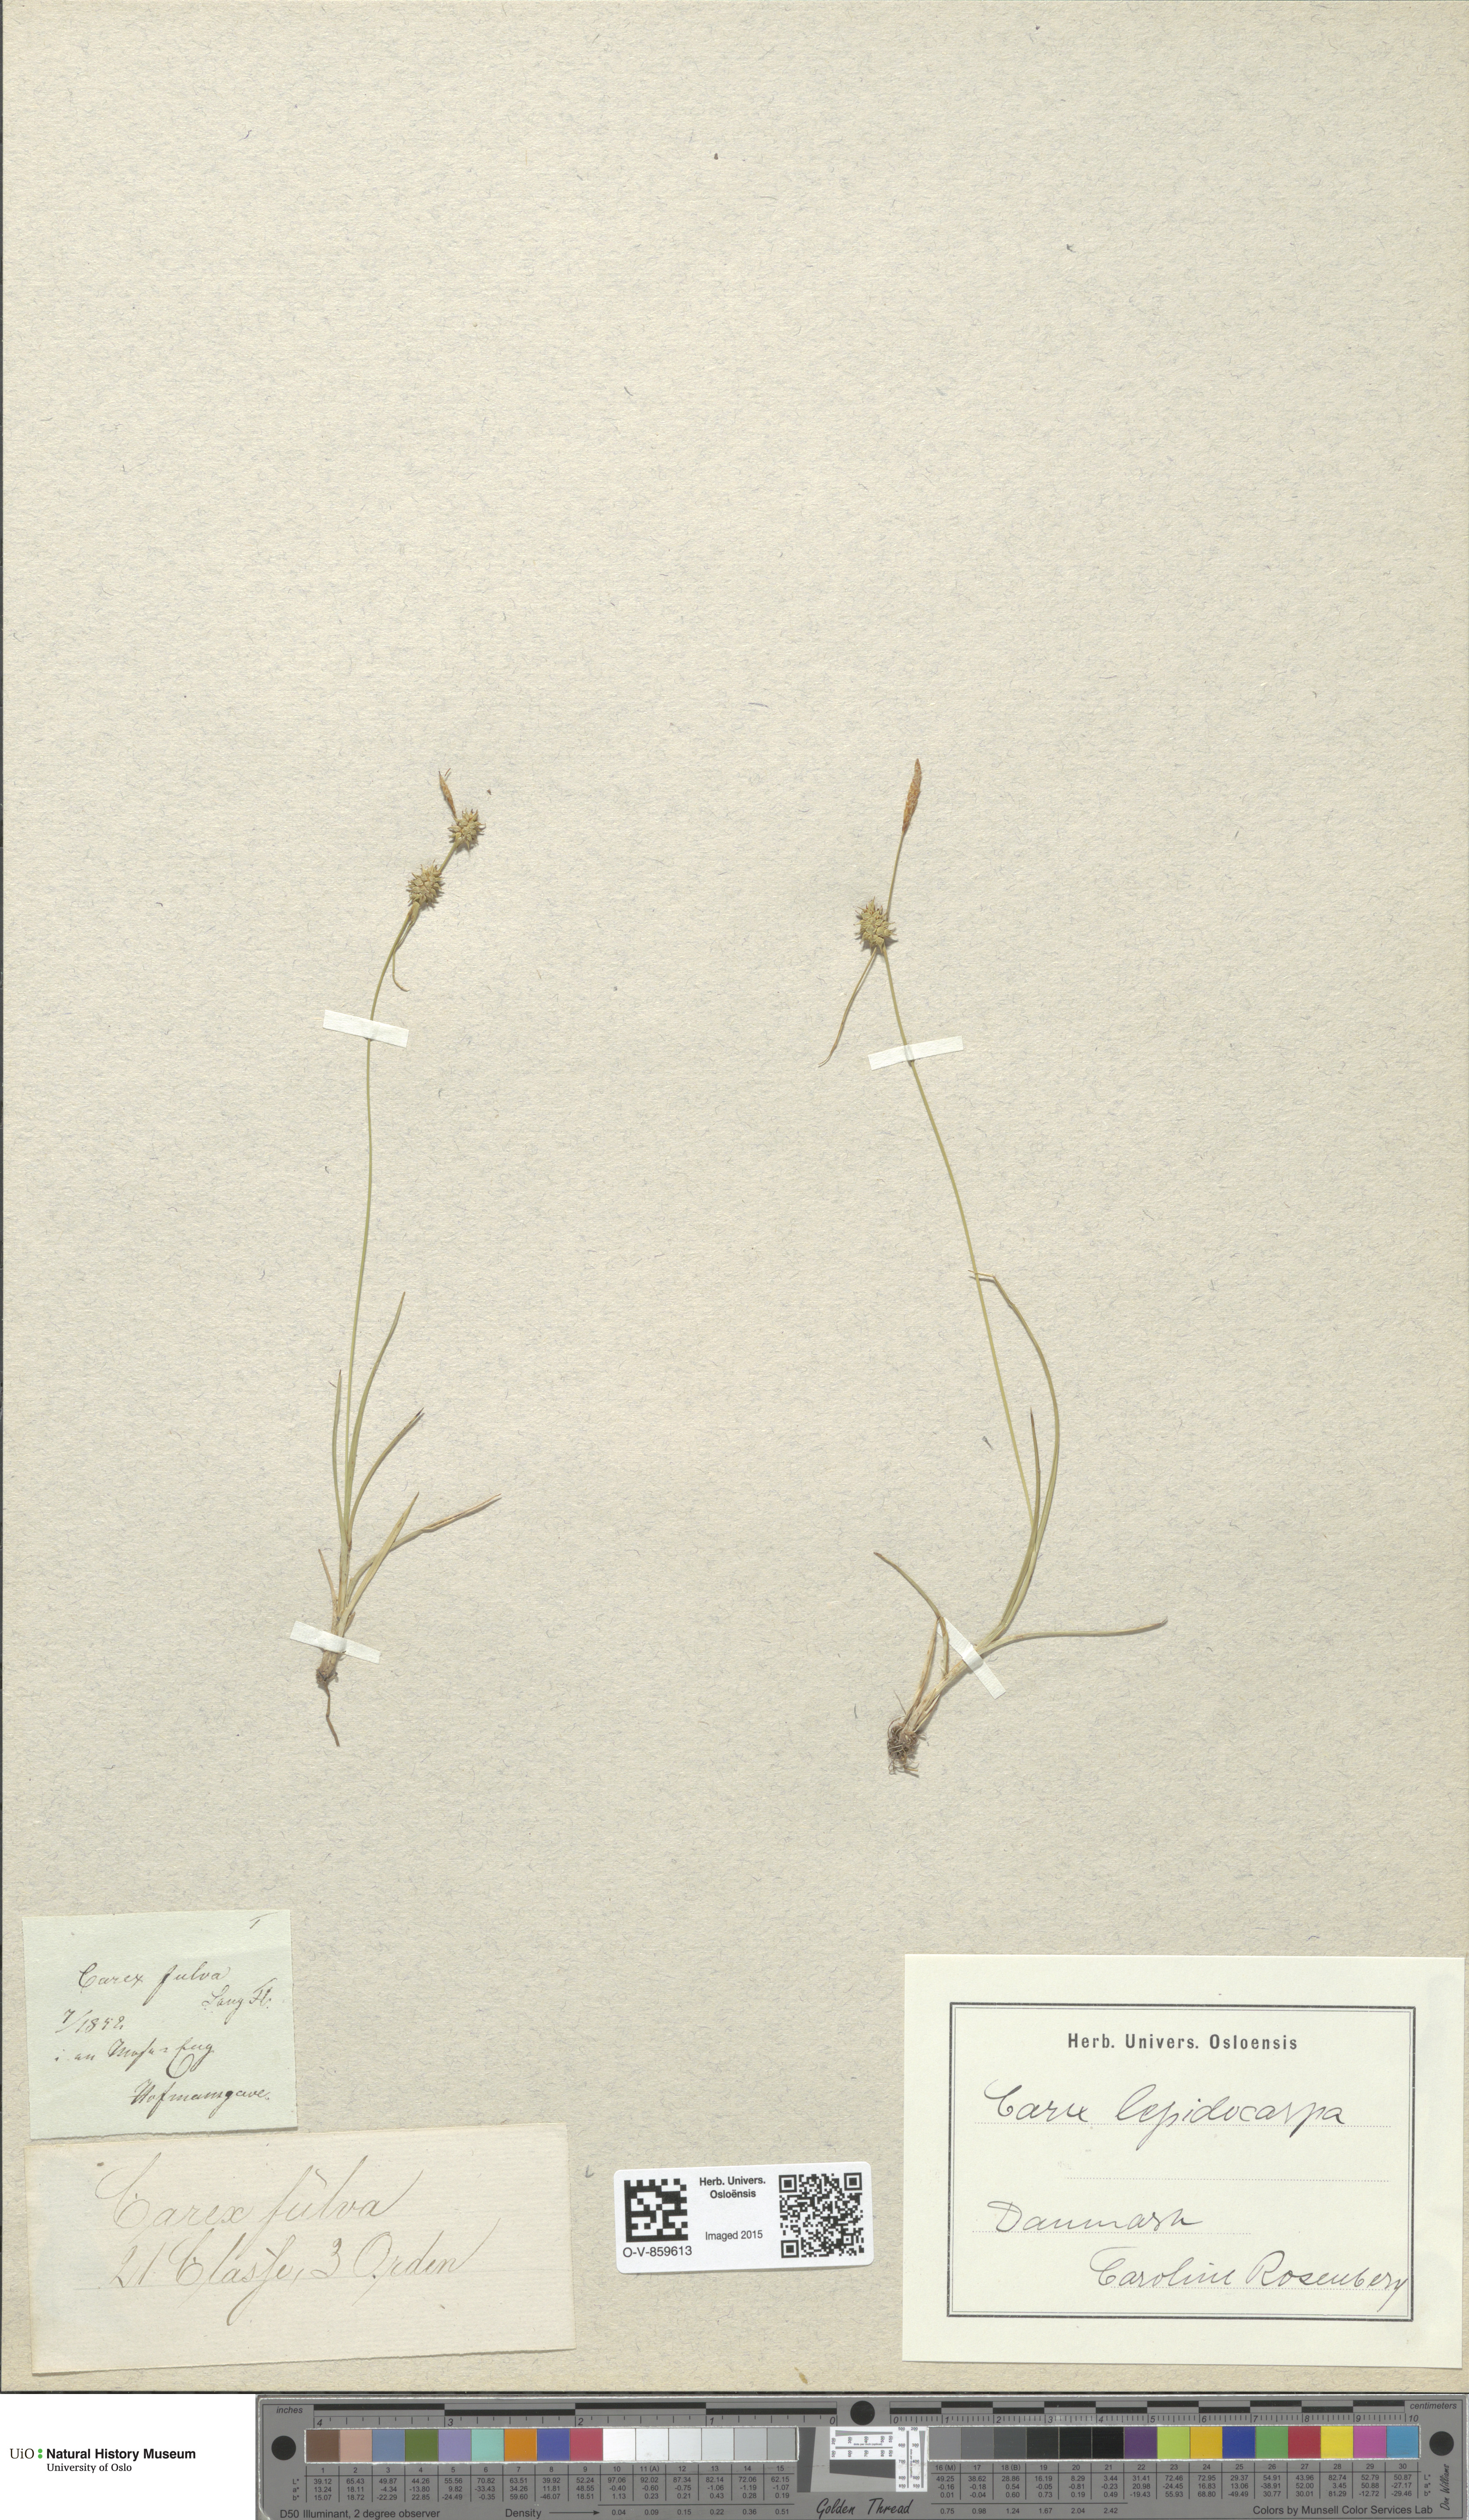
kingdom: Plantae
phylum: Tracheophyta
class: Liliopsida
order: Poales
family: Cyperaceae
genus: Carex
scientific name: Carex lepidocarpa
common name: Long-stalked yellow-sedge
